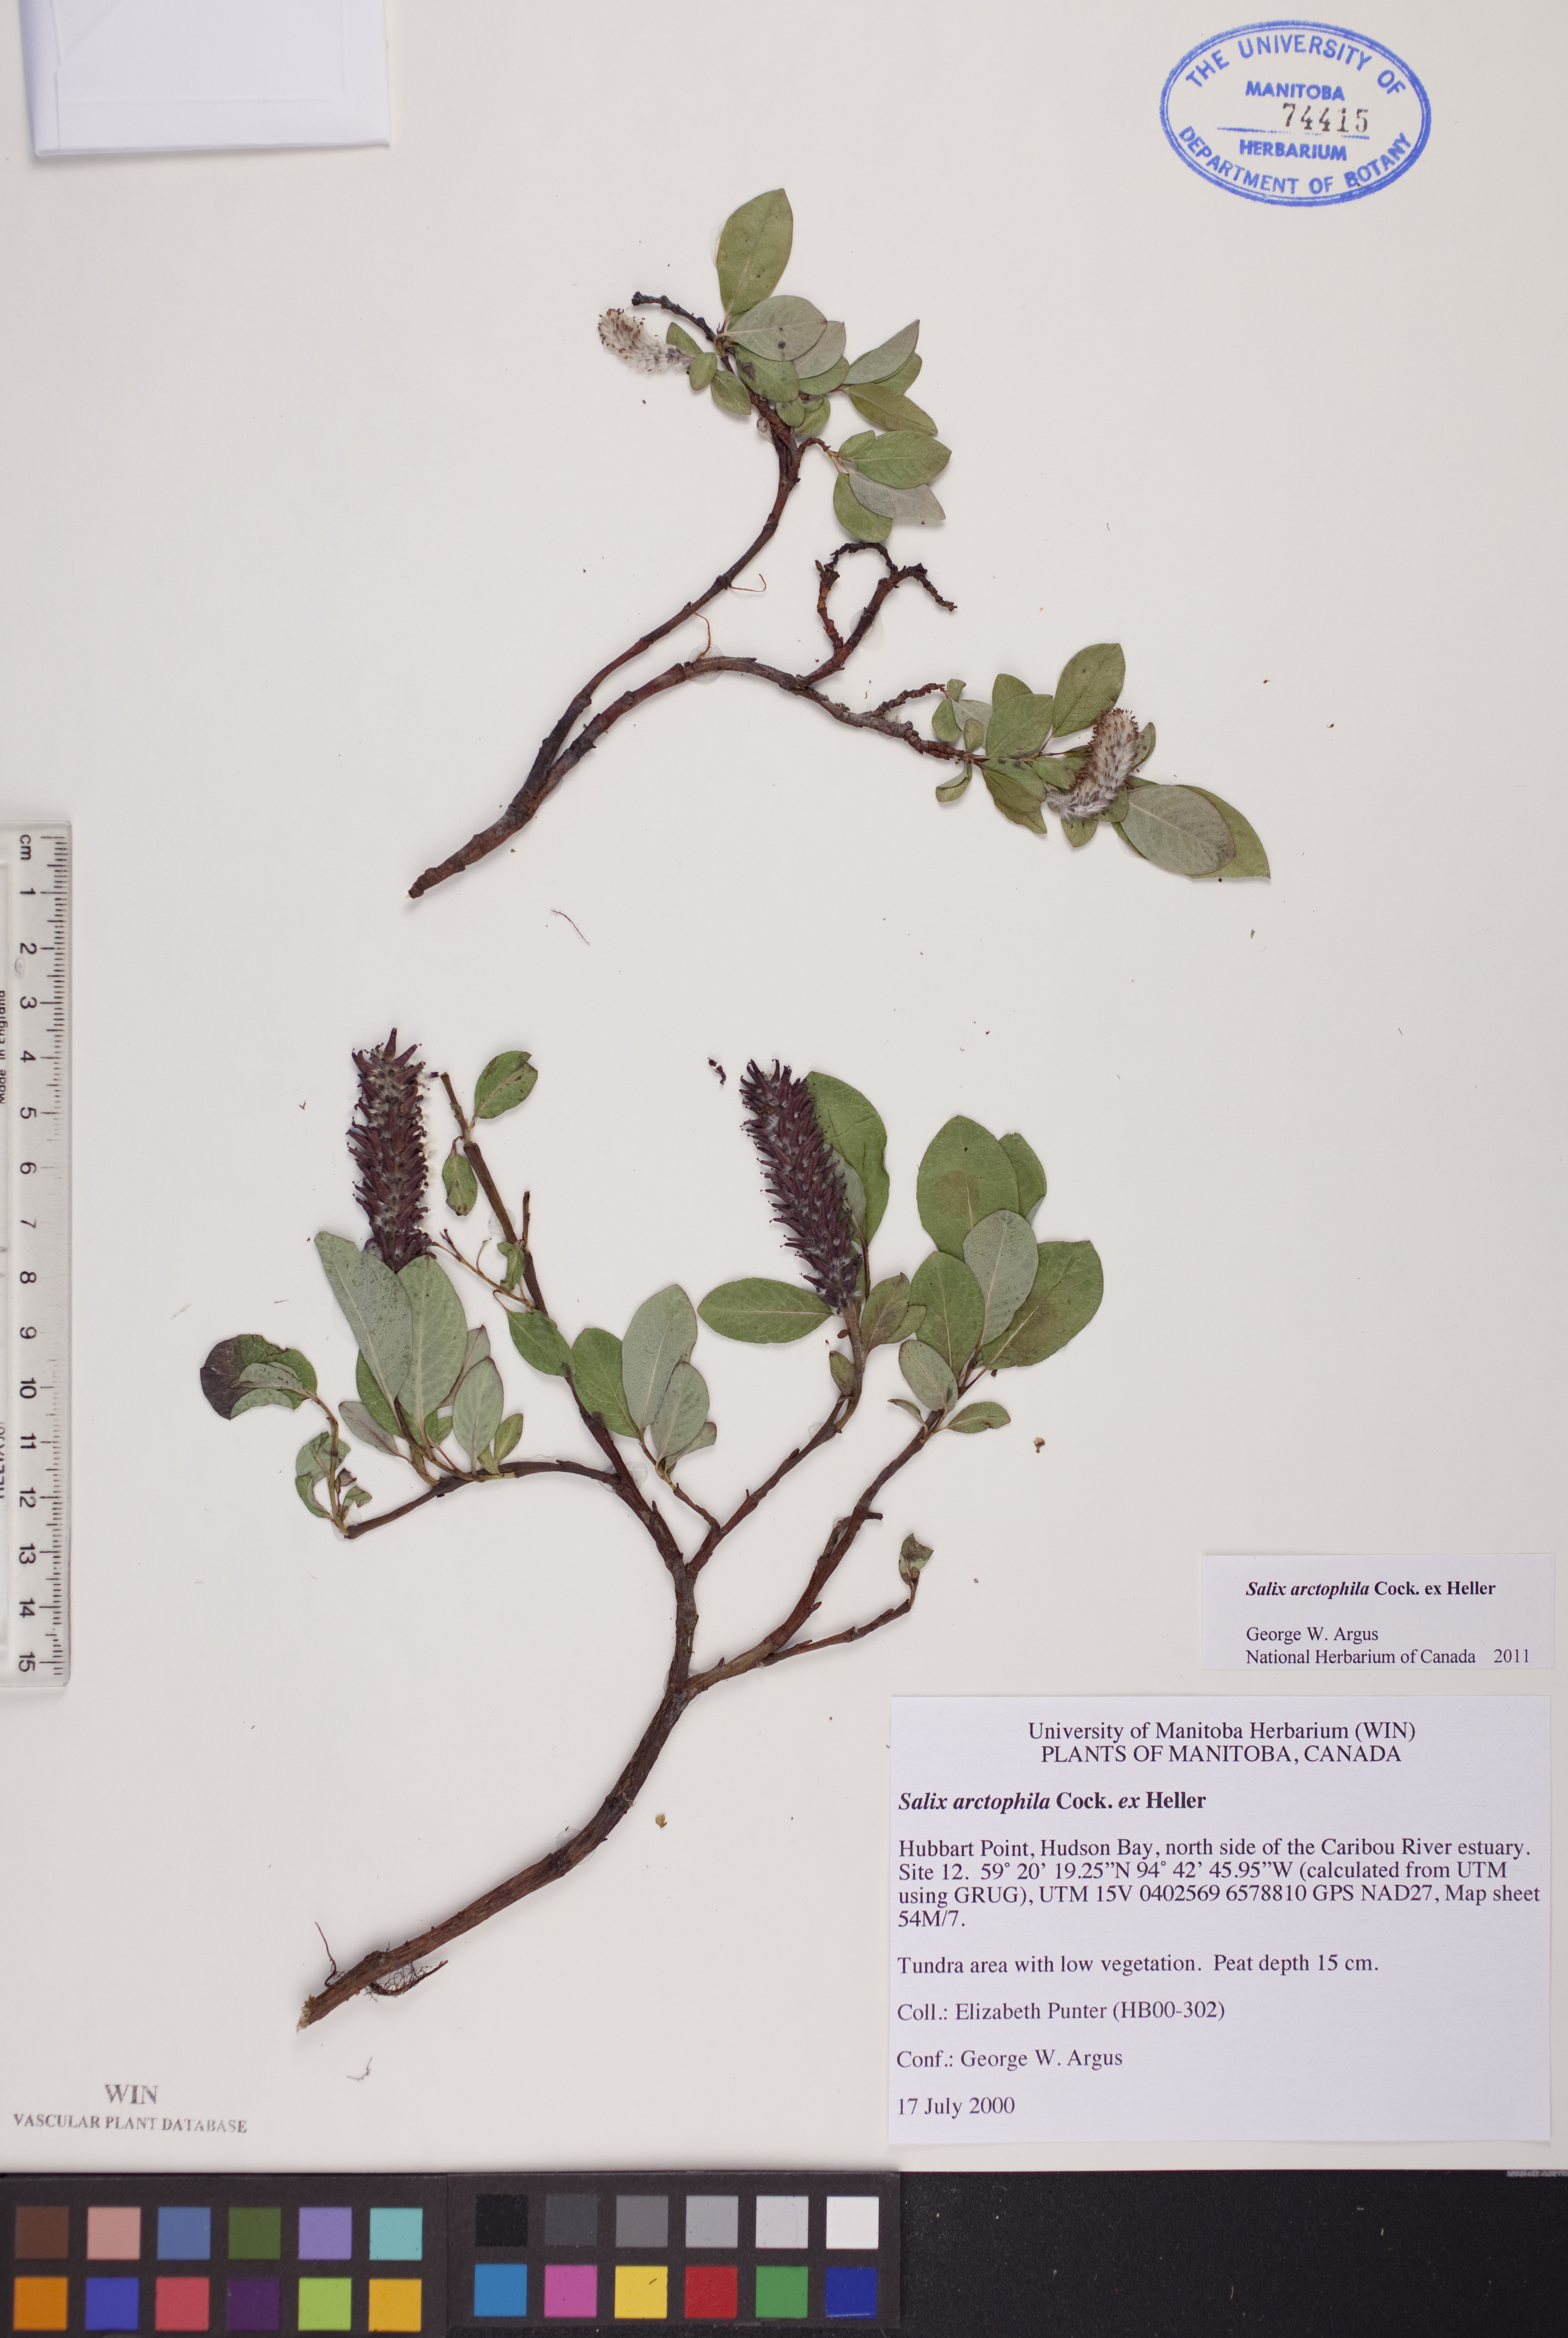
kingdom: Plantae
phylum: Tracheophyta
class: Magnoliopsida
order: Malpighiales
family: Salicaceae
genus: Salix
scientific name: Salix arctophila
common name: Greenland willow
